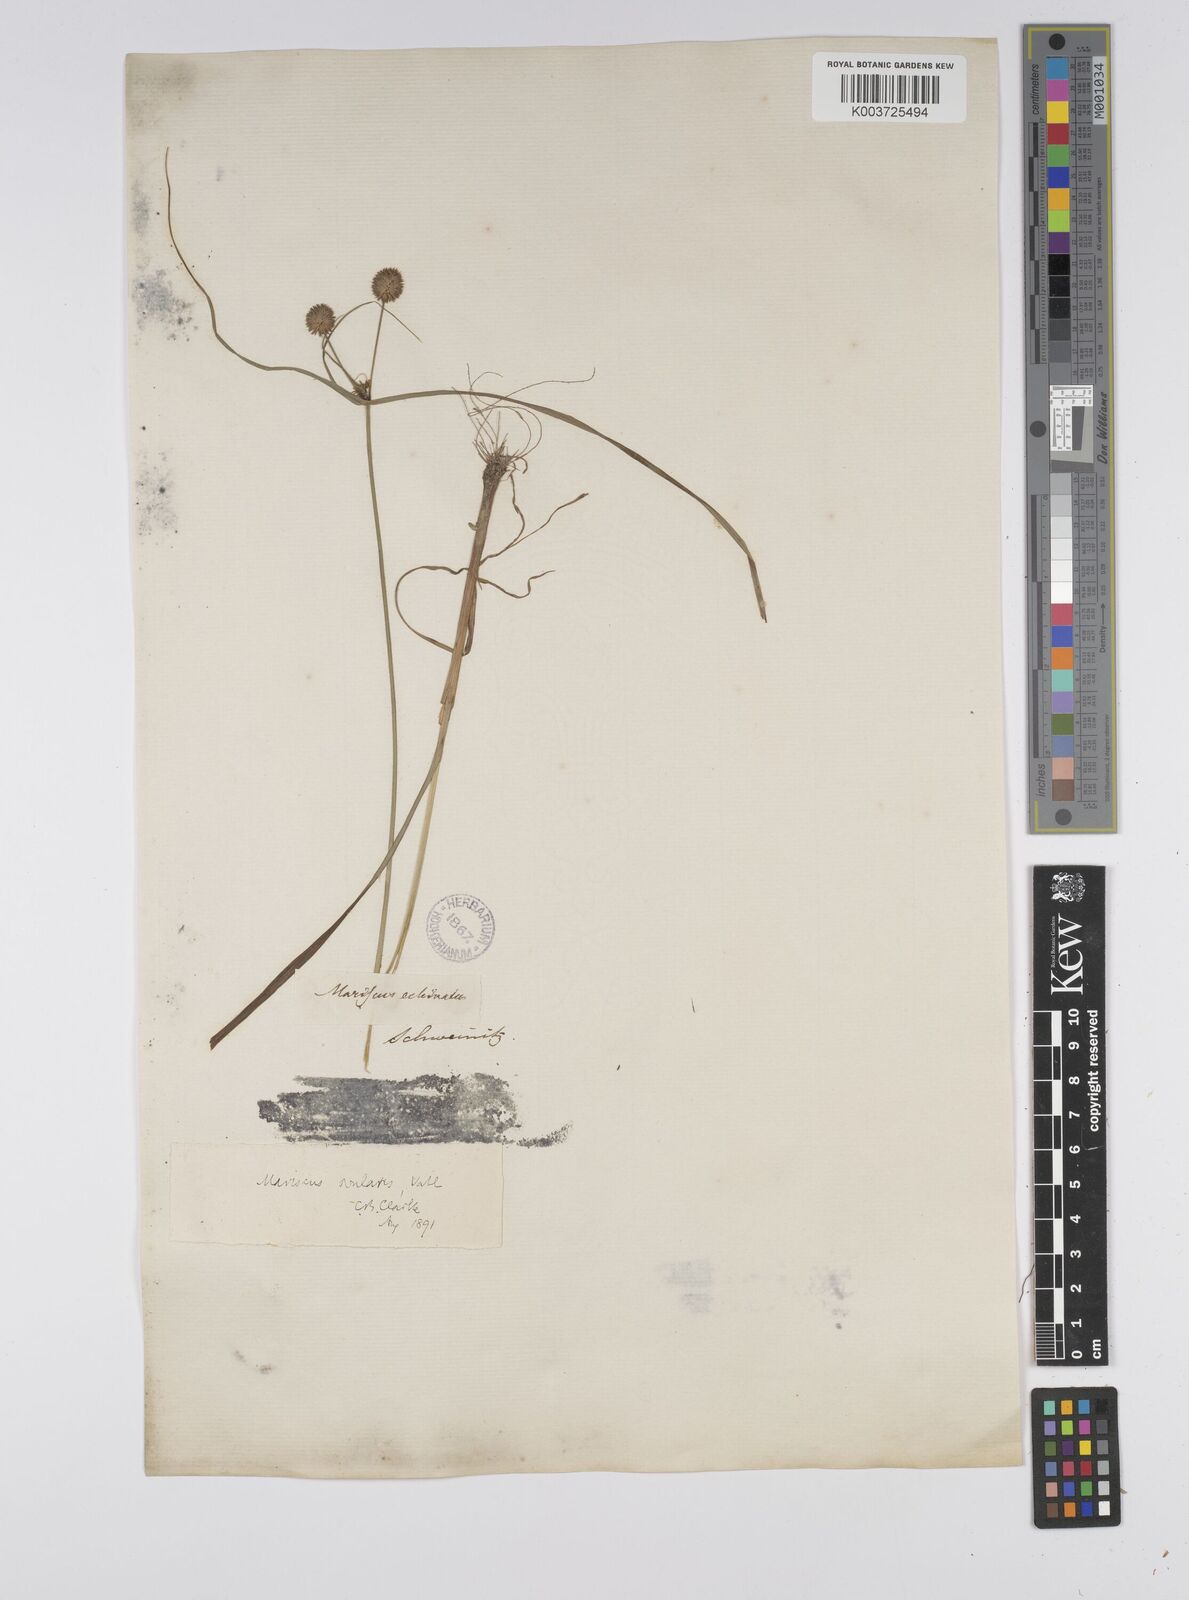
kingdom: Plantae
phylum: Tracheophyta
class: Liliopsida
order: Poales
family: Cyperaceae
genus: Cyperus
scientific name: Cyperus echinatus
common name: Teasel sedge
